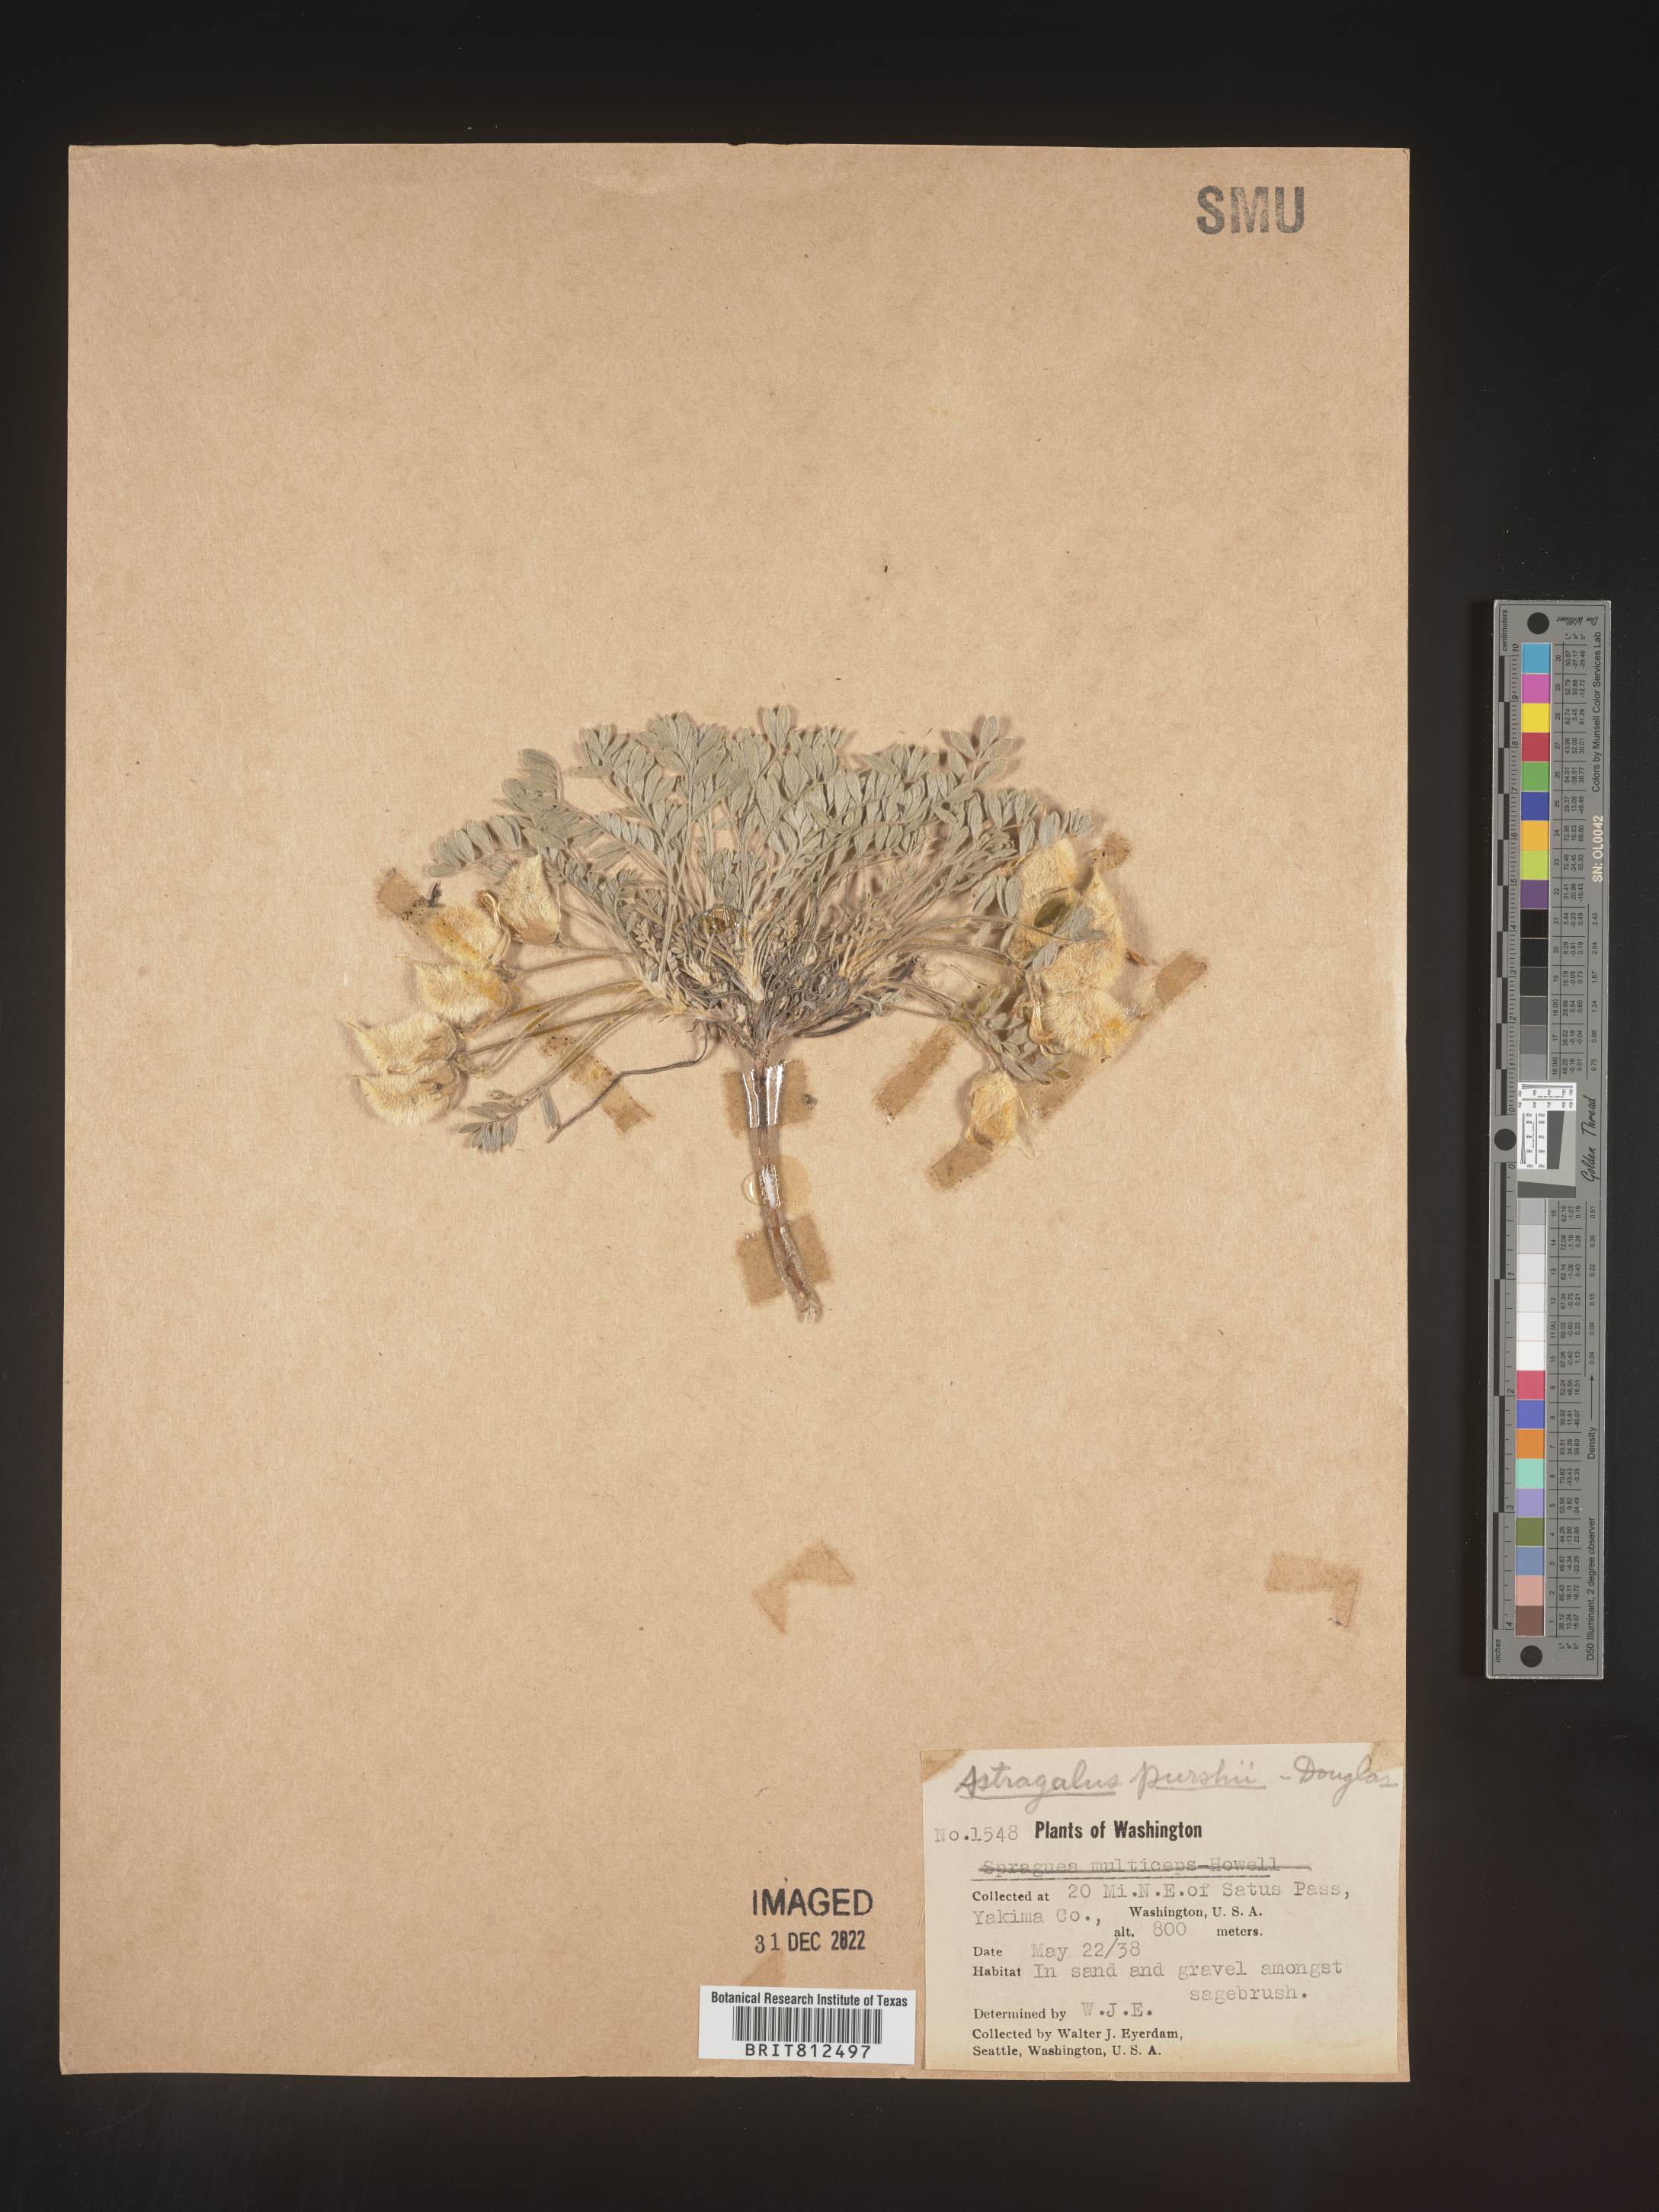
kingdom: Plantae
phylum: Tracheophyta
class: Magnoliopsida
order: Fabales
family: Fabaceae
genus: Astragalus
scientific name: Astragalus leucolobus
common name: Big bear valley woollypod
